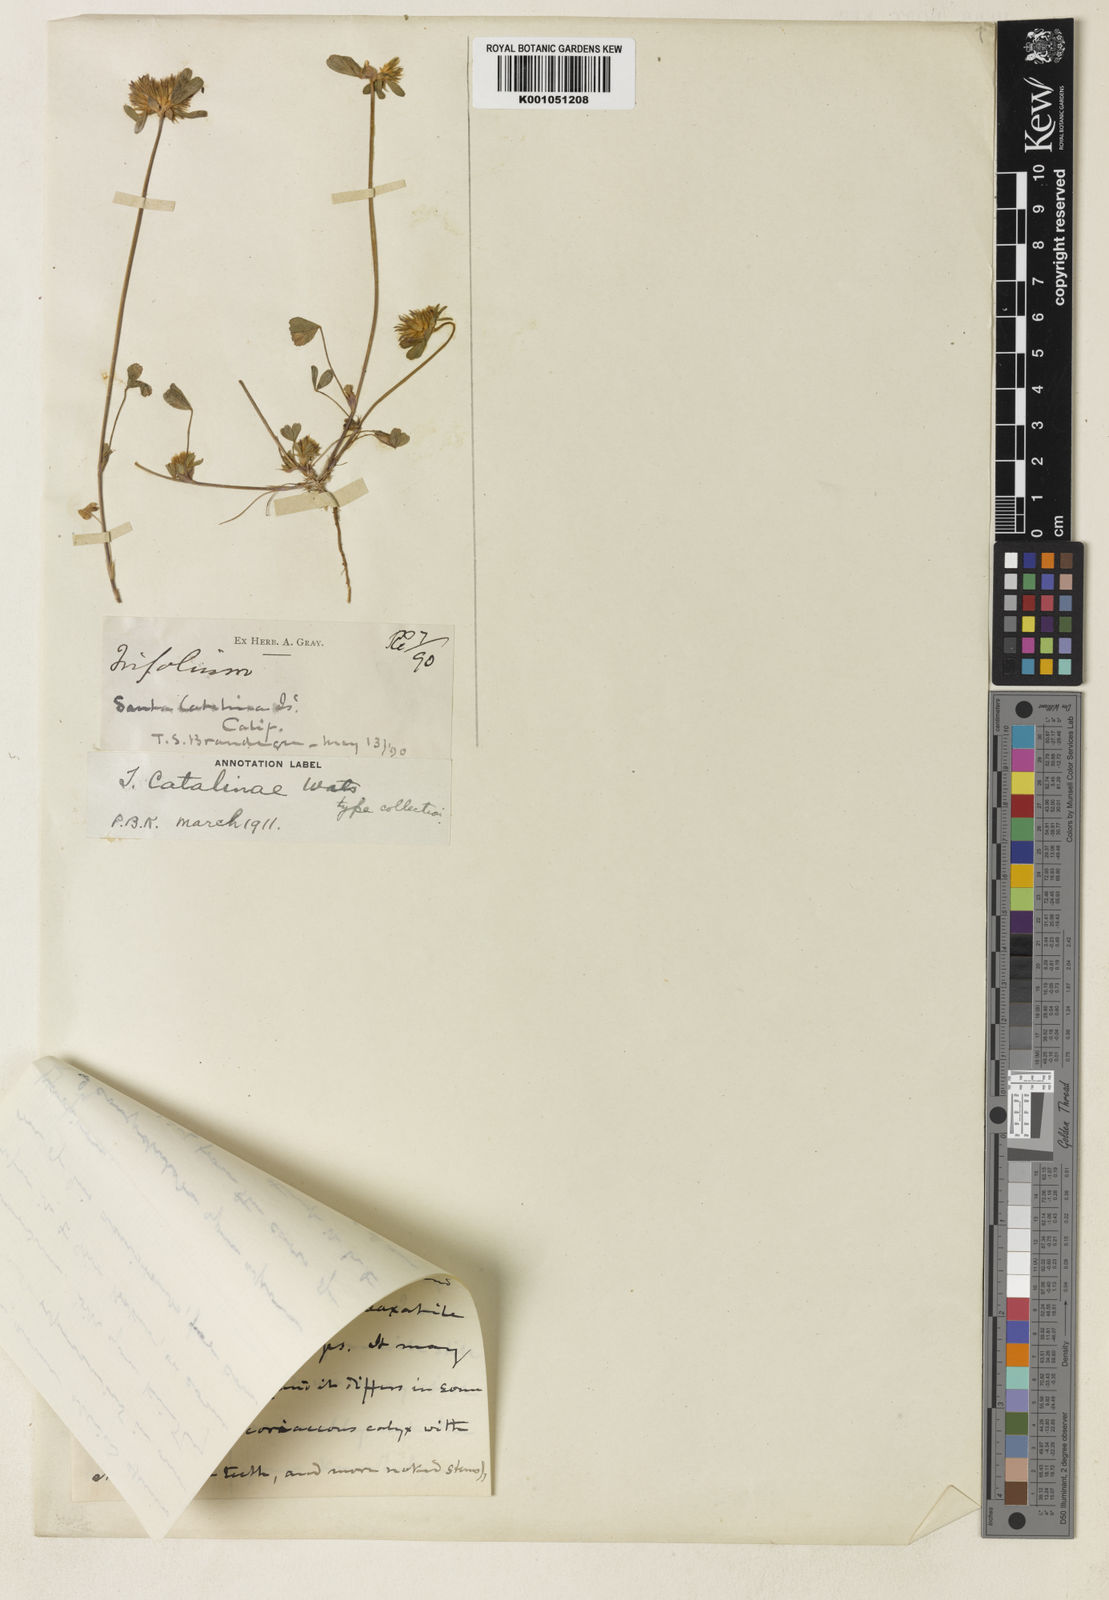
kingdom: Plantae
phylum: Tracheophyta
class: Magnoliopsida
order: Fabales
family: Fabaceae
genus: Trifolium
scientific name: Trifolium macraei
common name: Macrae's clover
